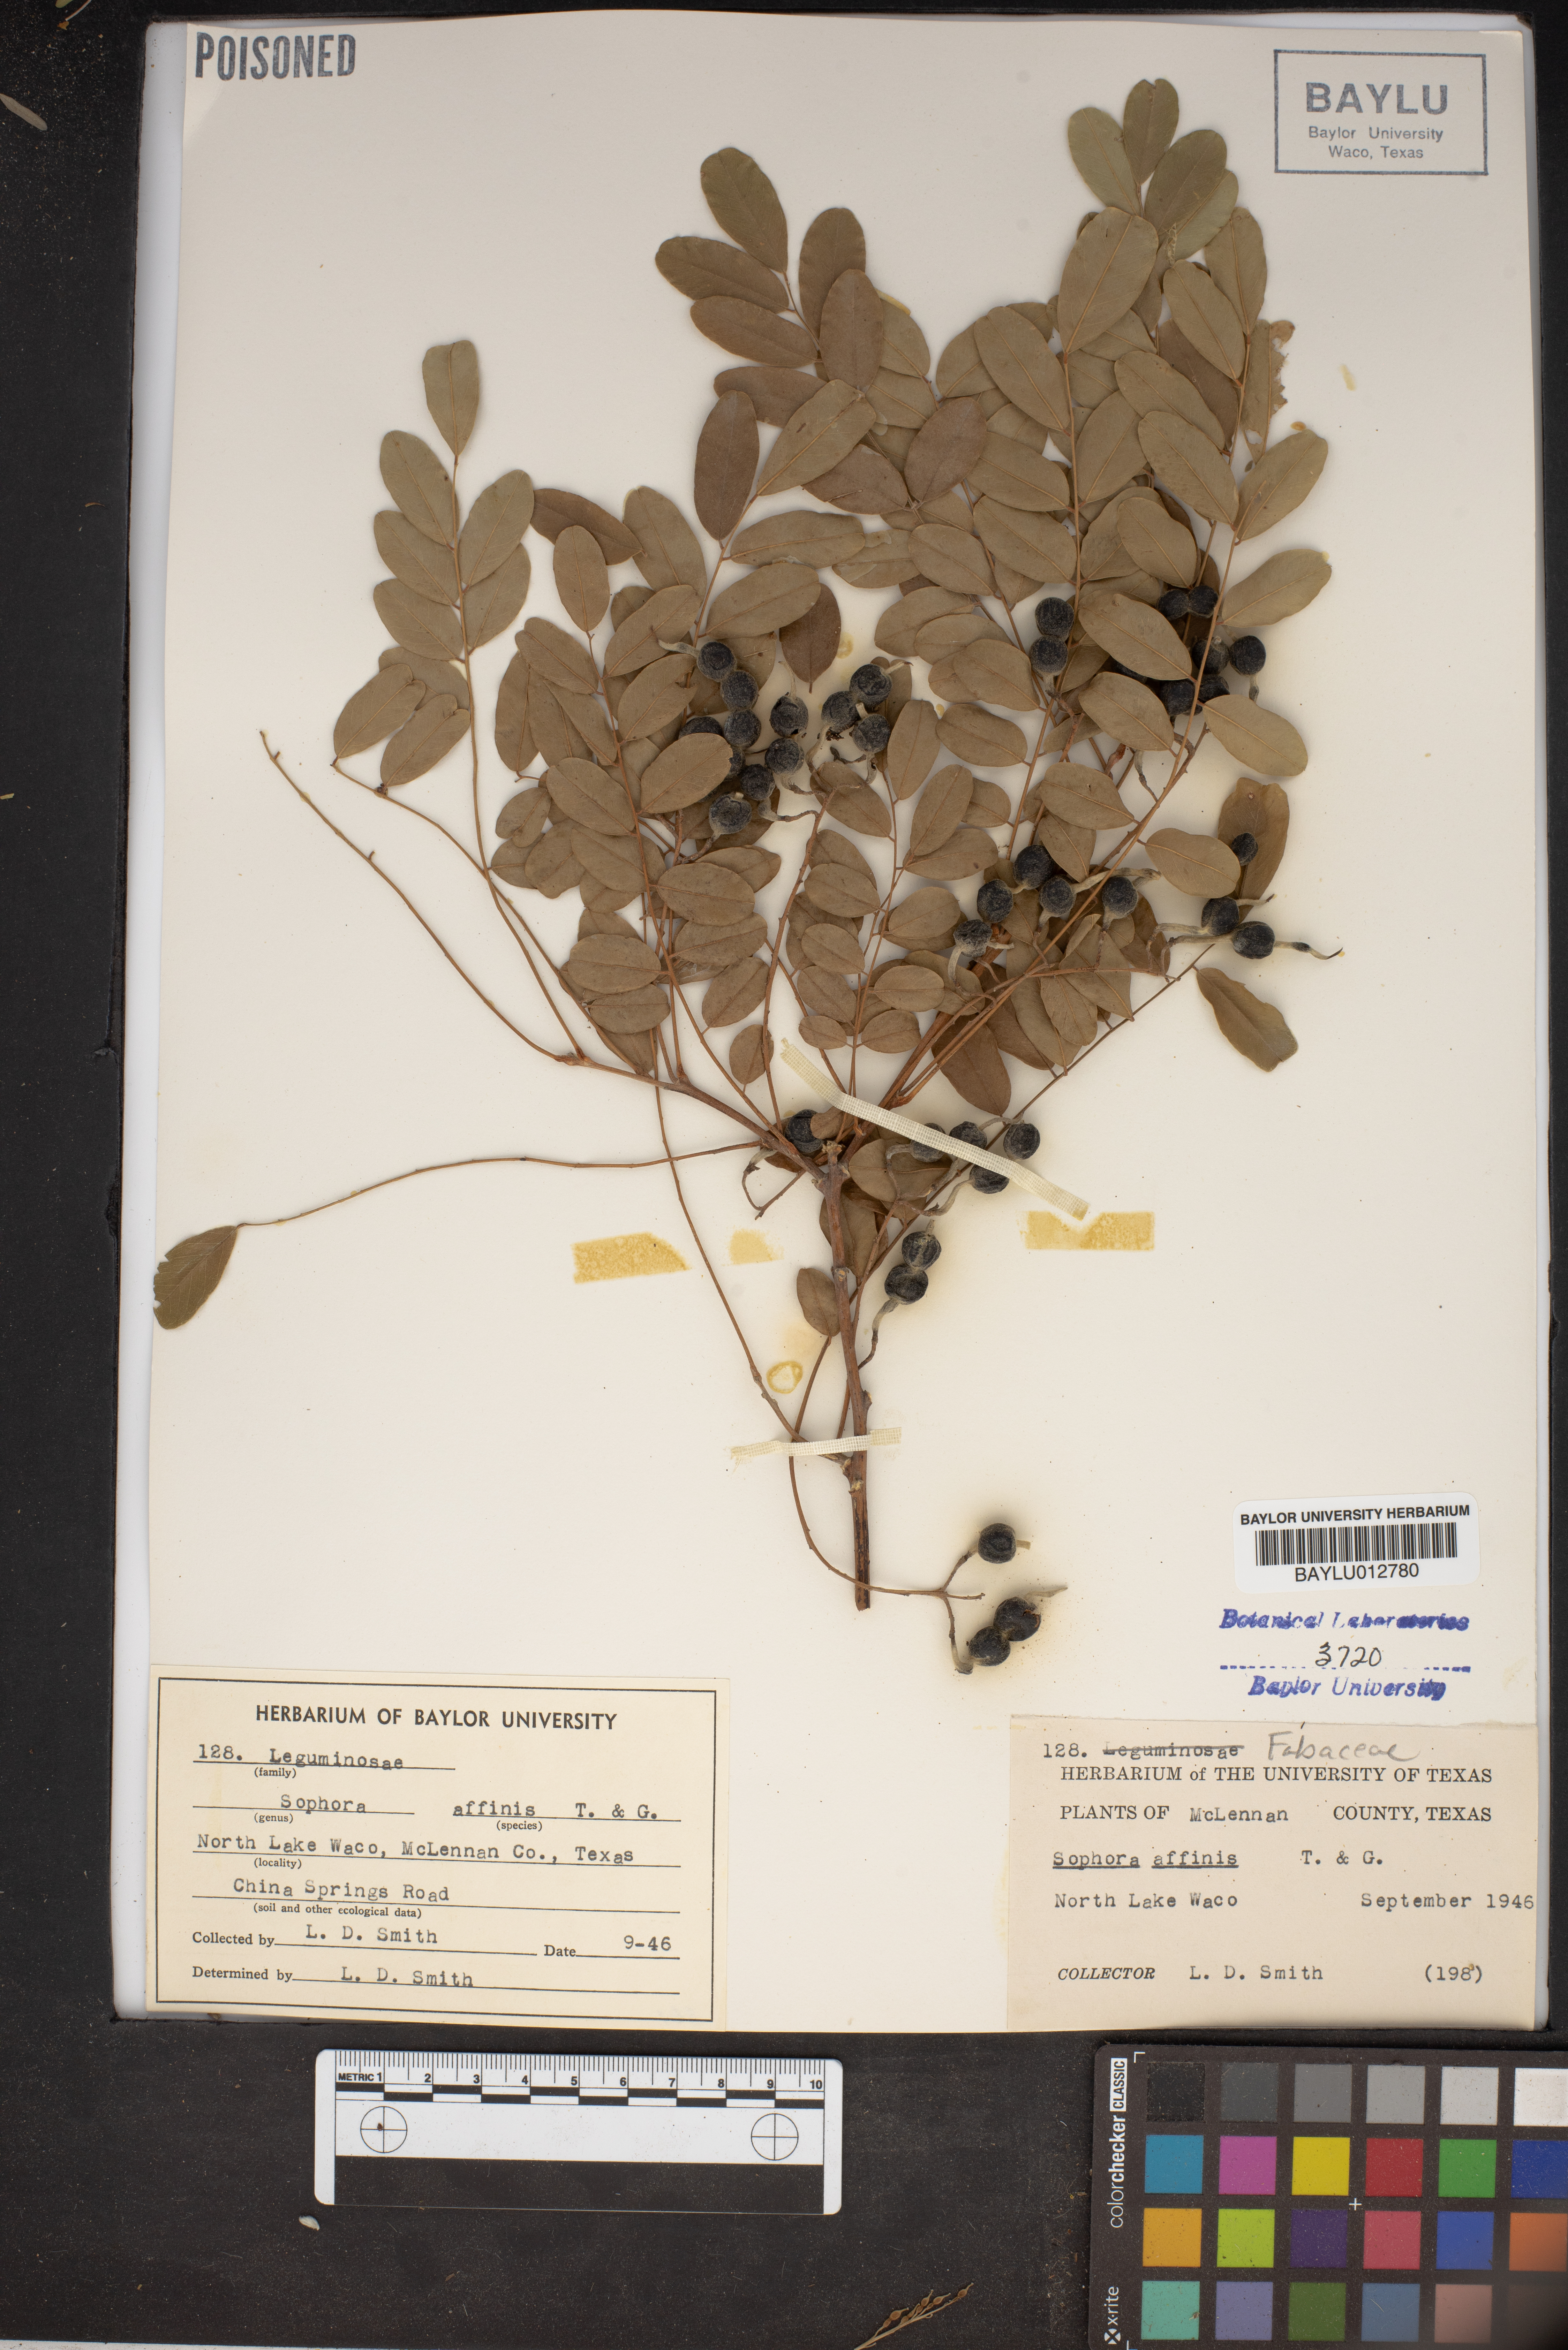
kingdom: Plantae
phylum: Tracheophyta
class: Magnoliopsida
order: Fabales
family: Fabaceae
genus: Styphnolobium
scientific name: Styphnolobium affine
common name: Texas sophora
